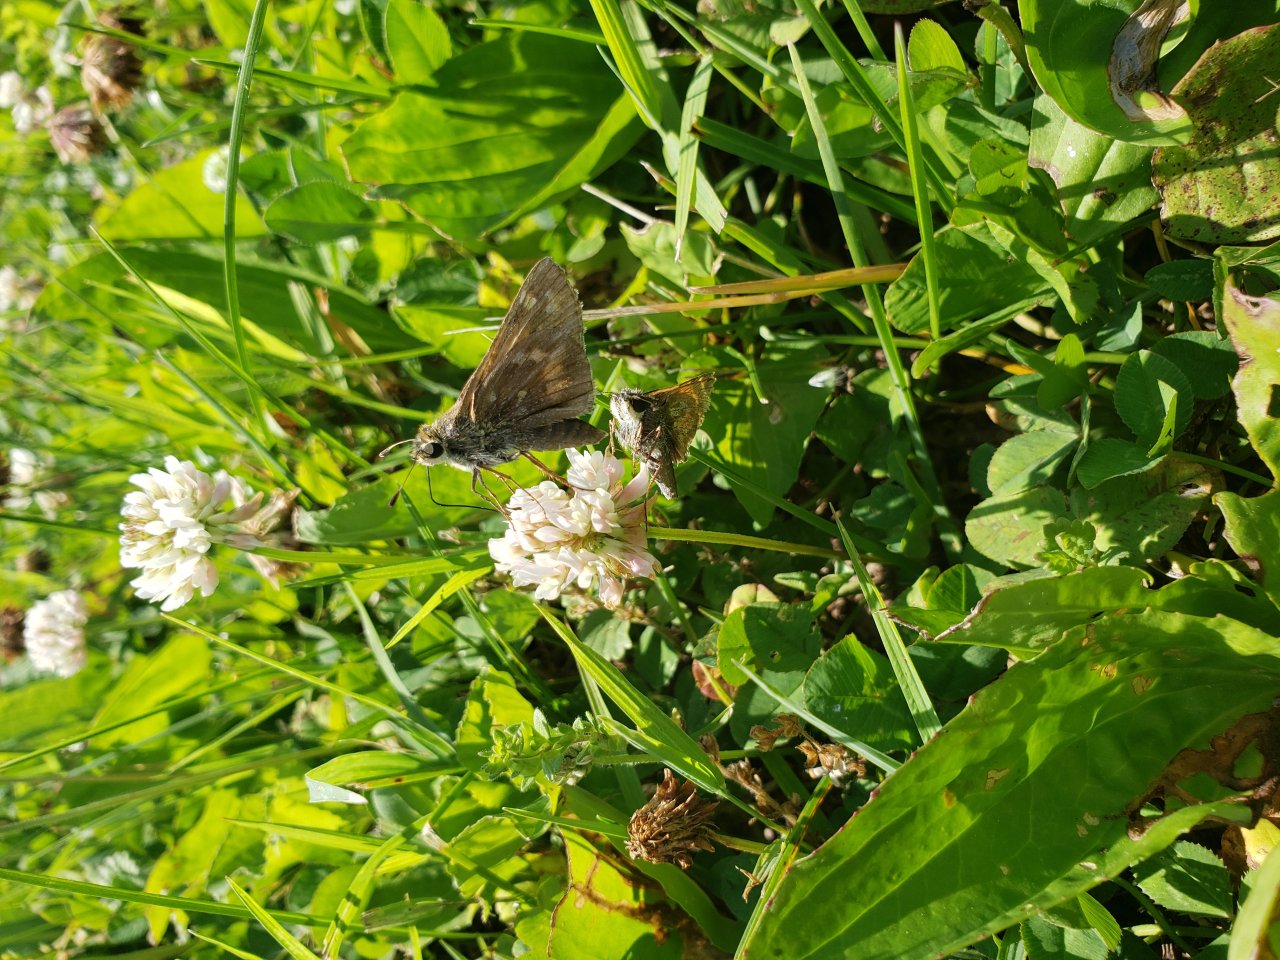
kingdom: Animalia
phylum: Arthropoda
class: Insecta
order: Lepidoptera
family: Hesperiidae
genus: Atalopedes
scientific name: Atalopedes campestris
